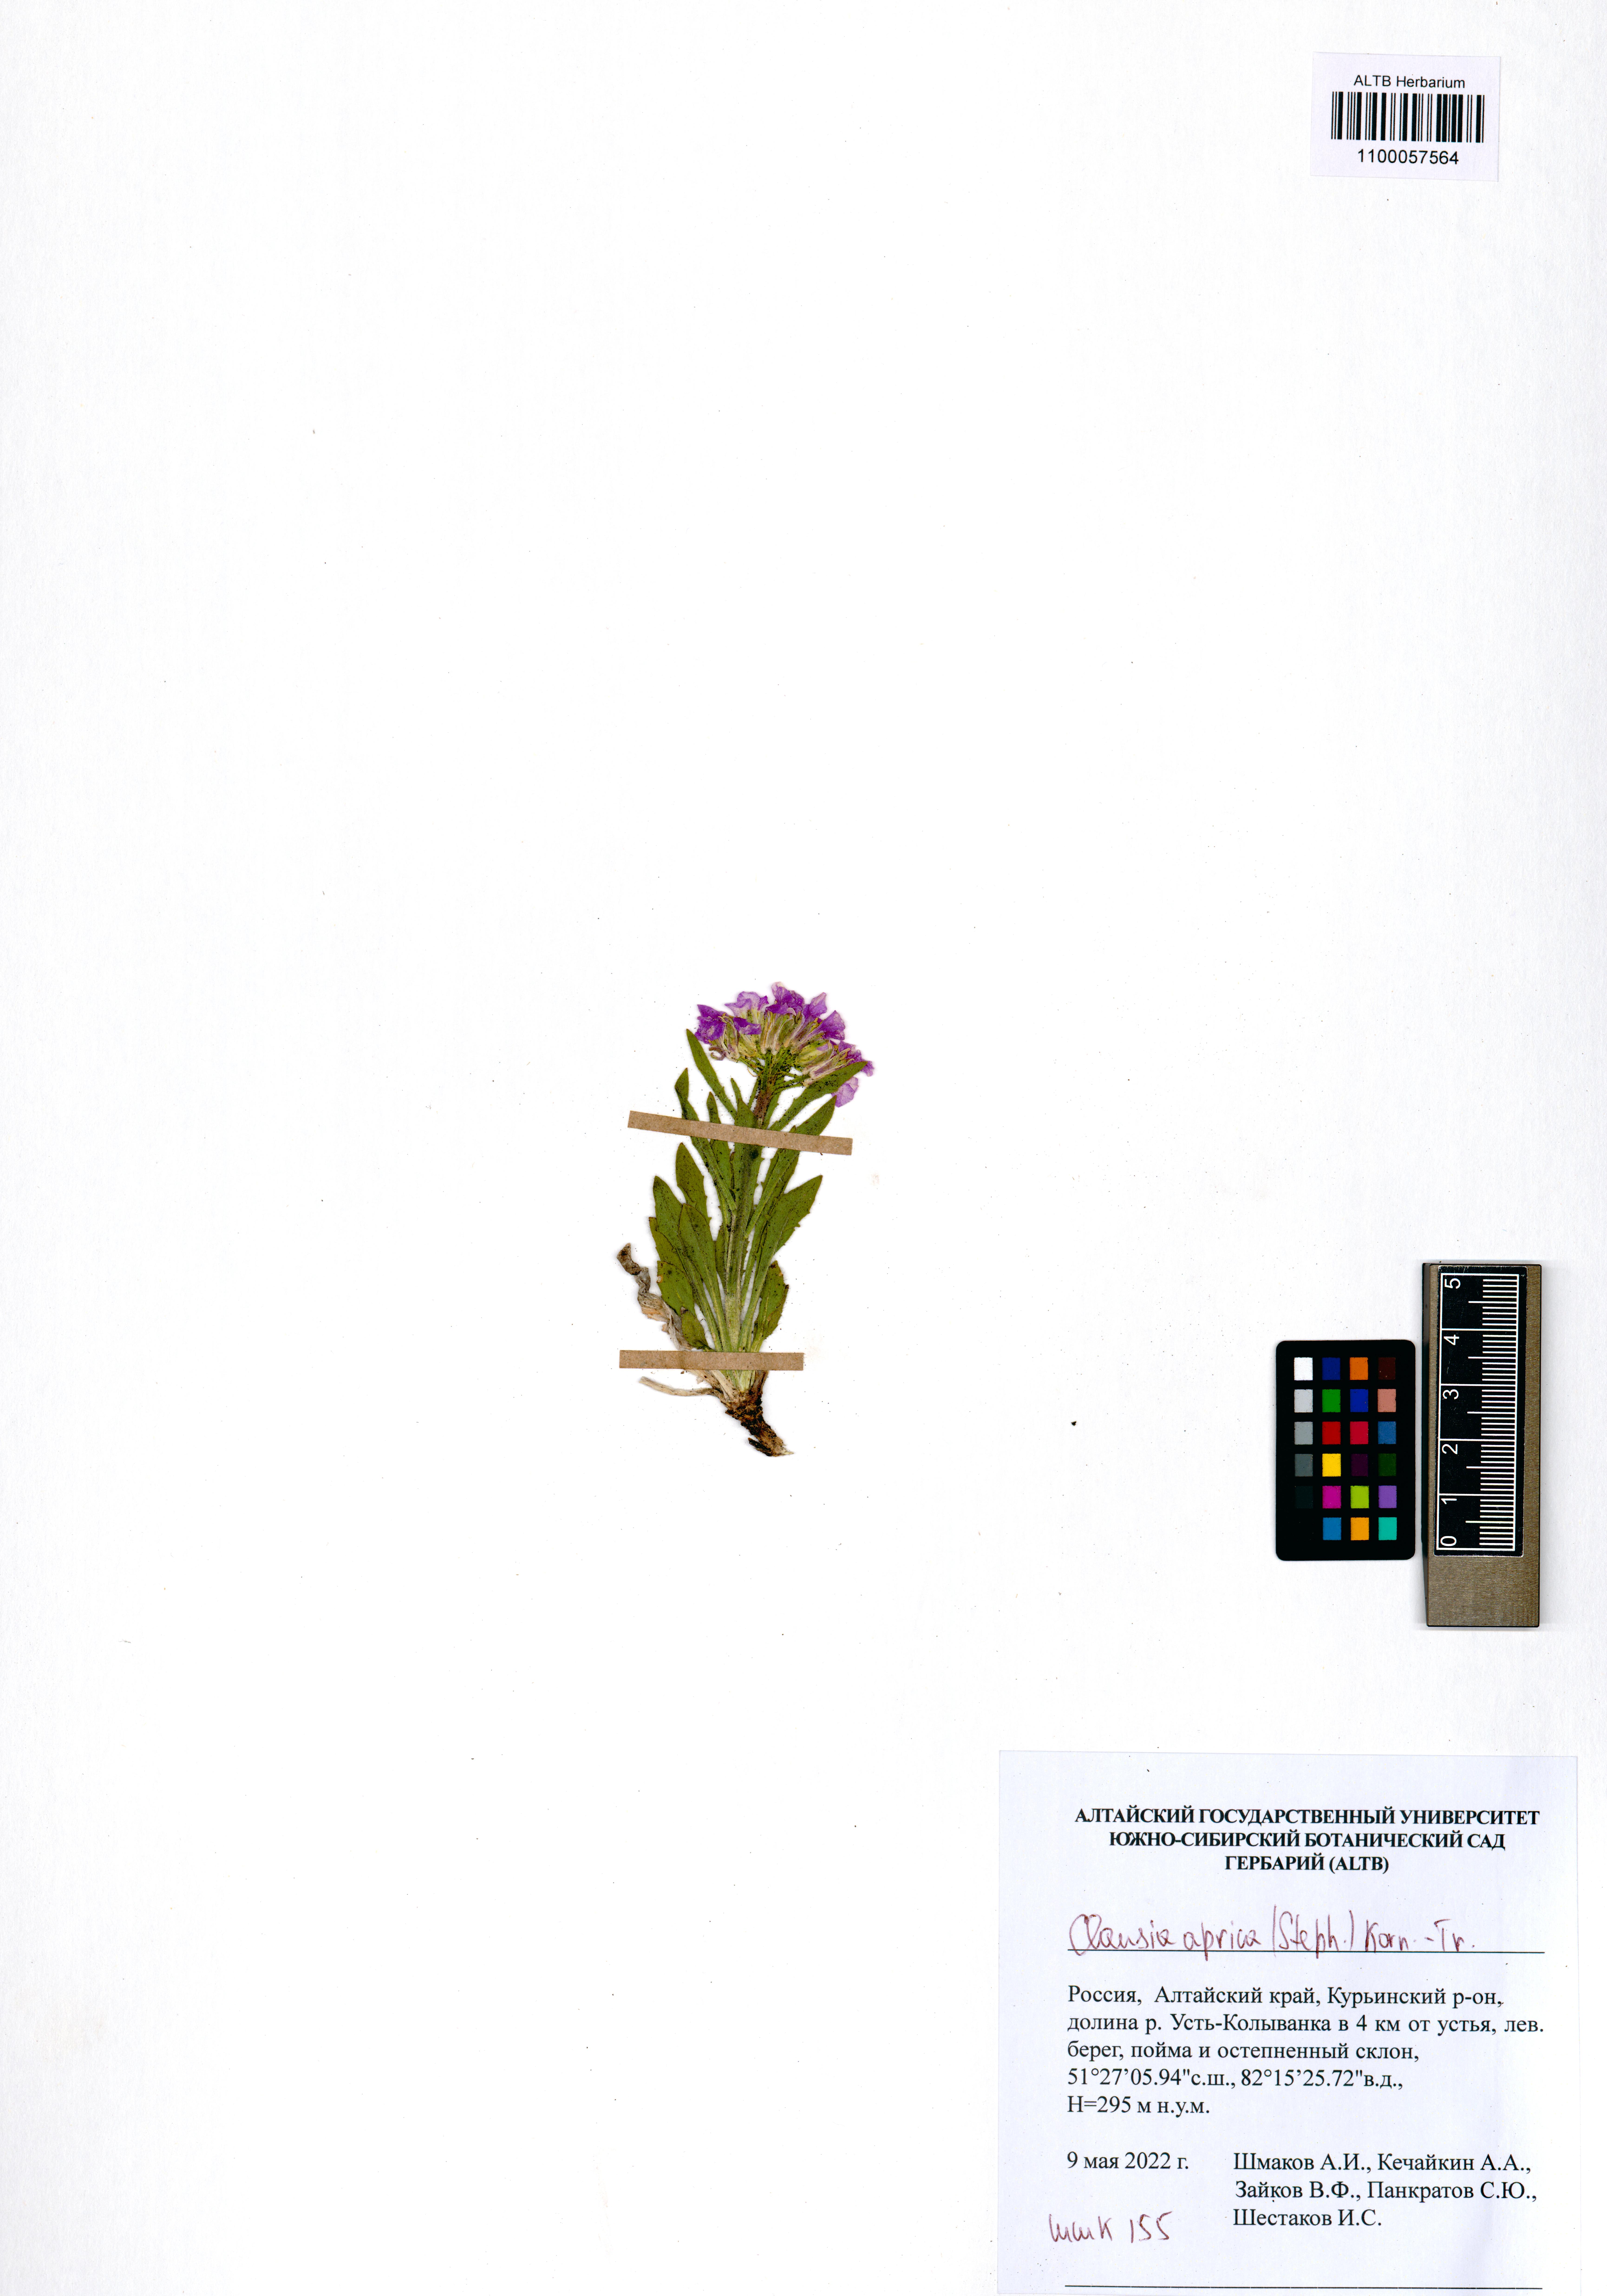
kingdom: Plantae
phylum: Tracheophyta
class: Magnoliopsida
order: Brassicales
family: Brassicaceae
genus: Clausia
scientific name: Clausia aprica
